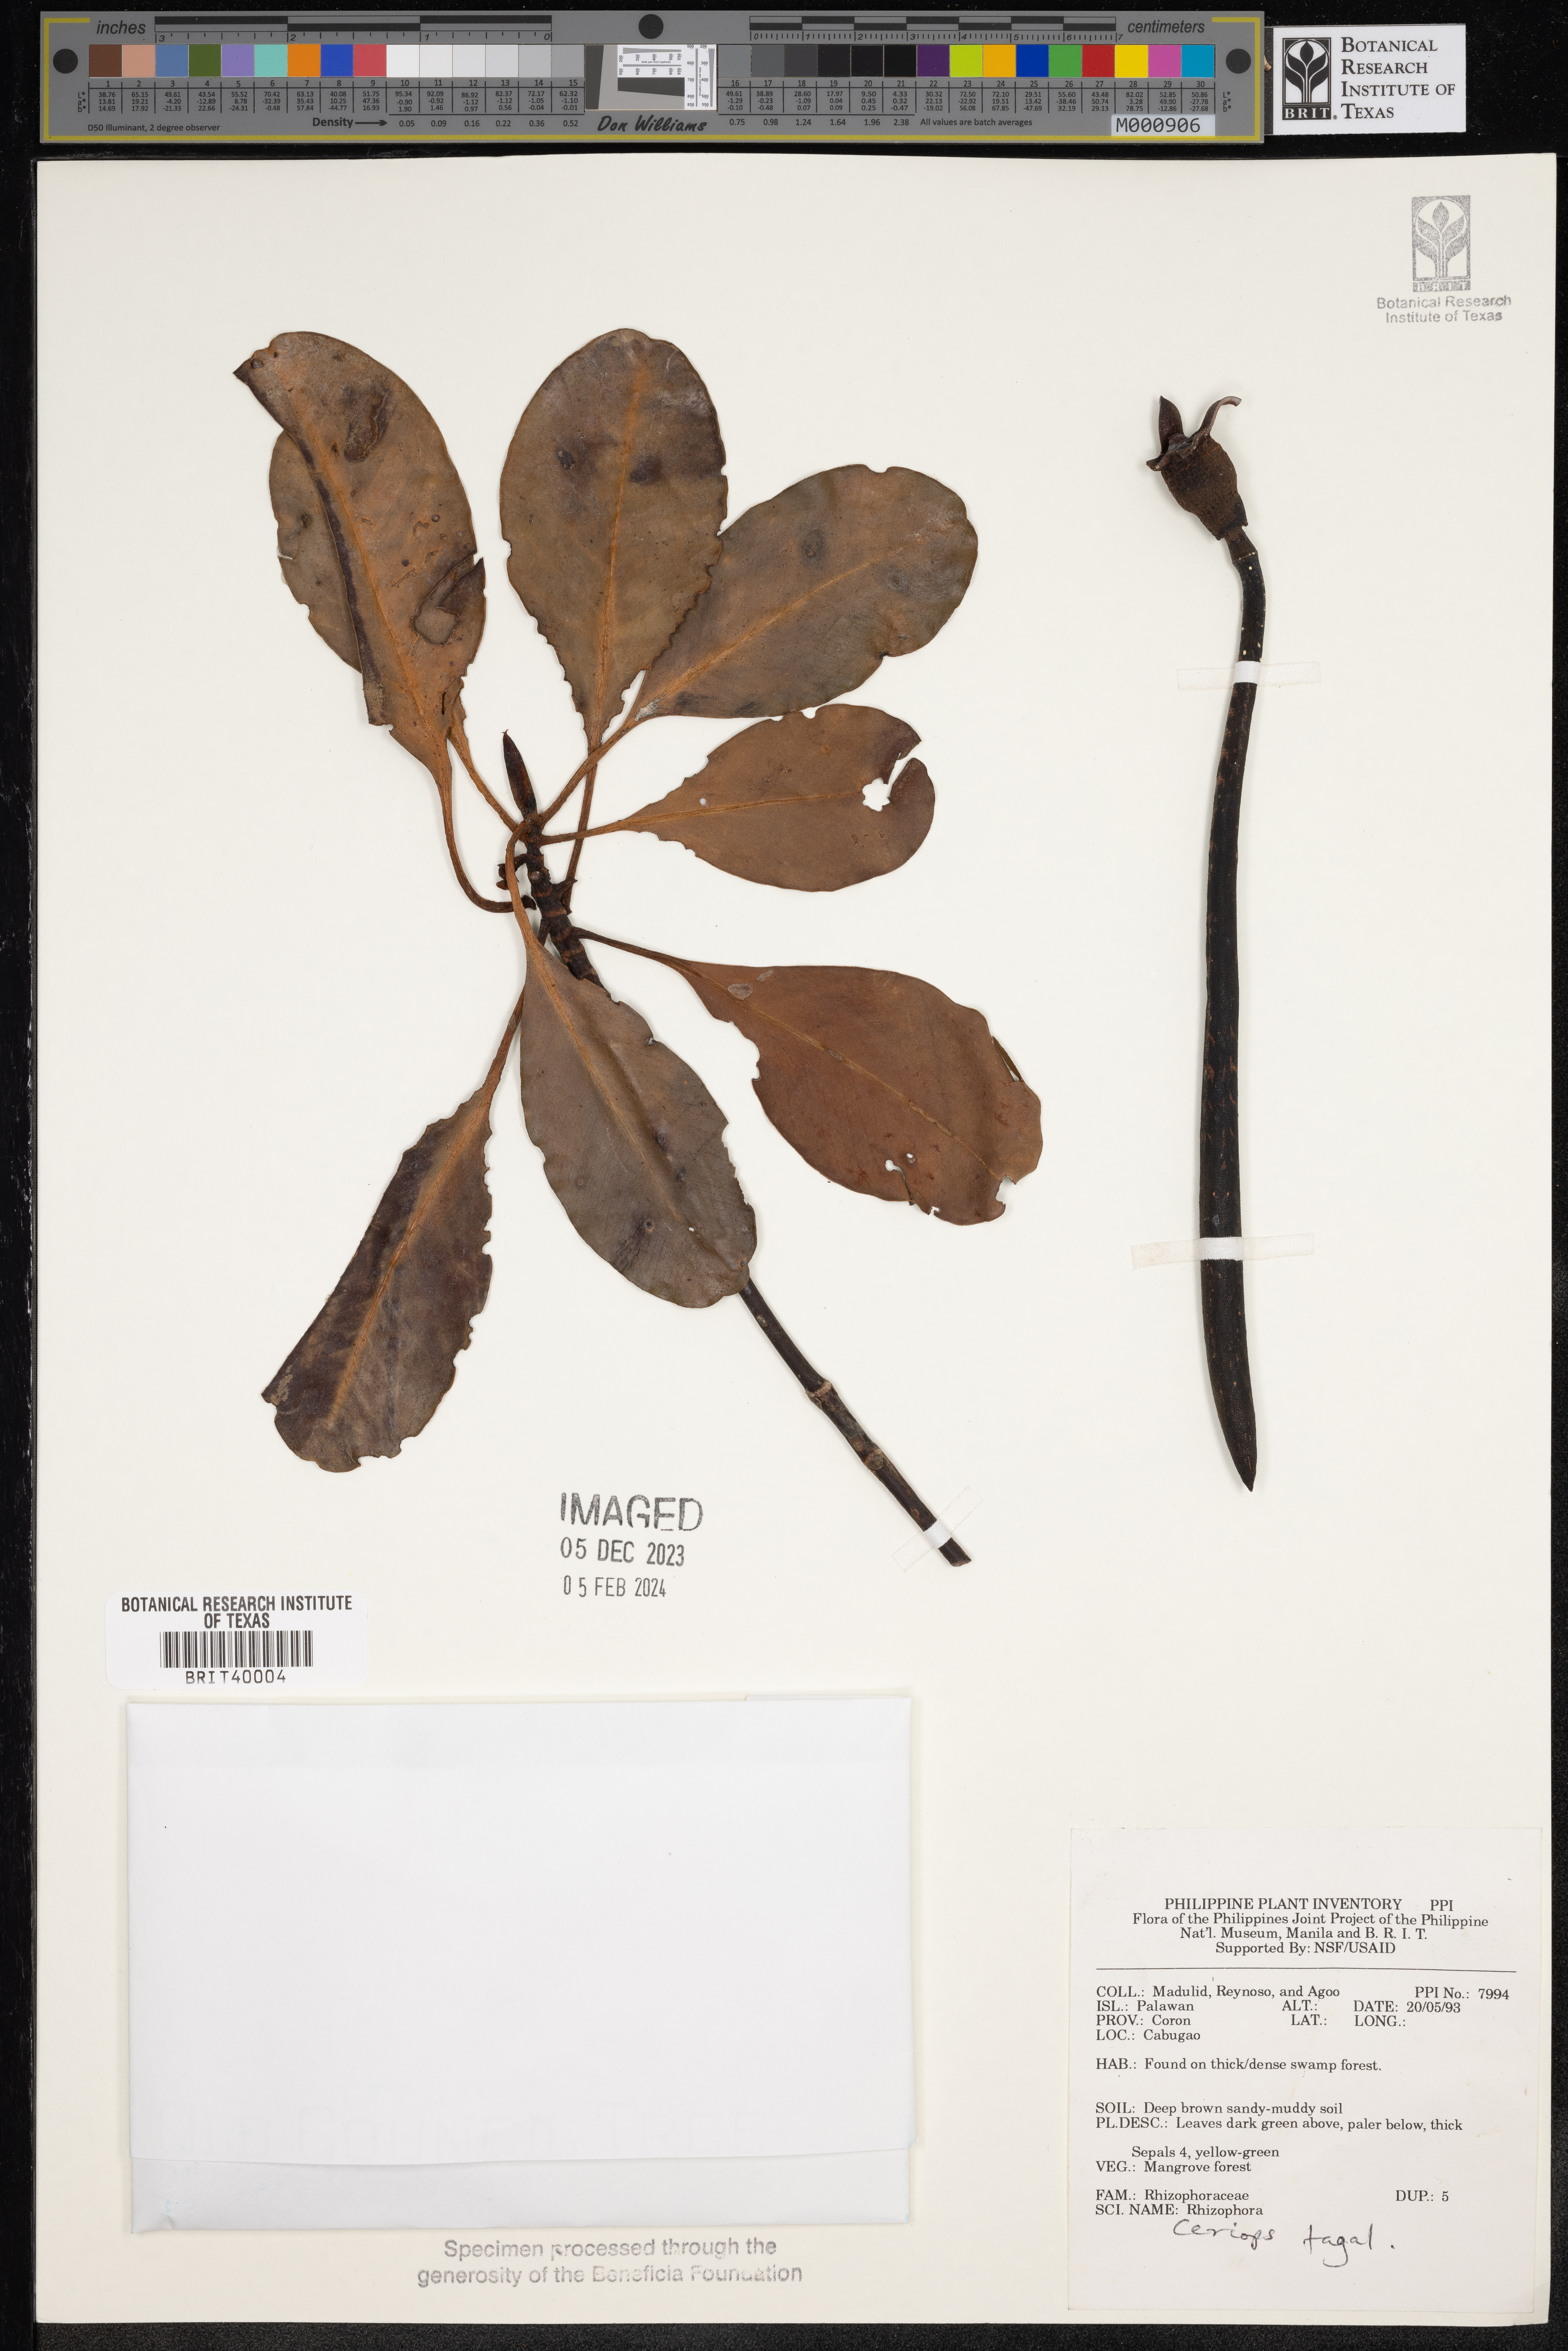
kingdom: Plantae
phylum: Tracheophyta
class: Magnoliopsida
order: Malpighiales
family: Rhizophoraceae
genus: Rhizophora
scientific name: Rhizophora
